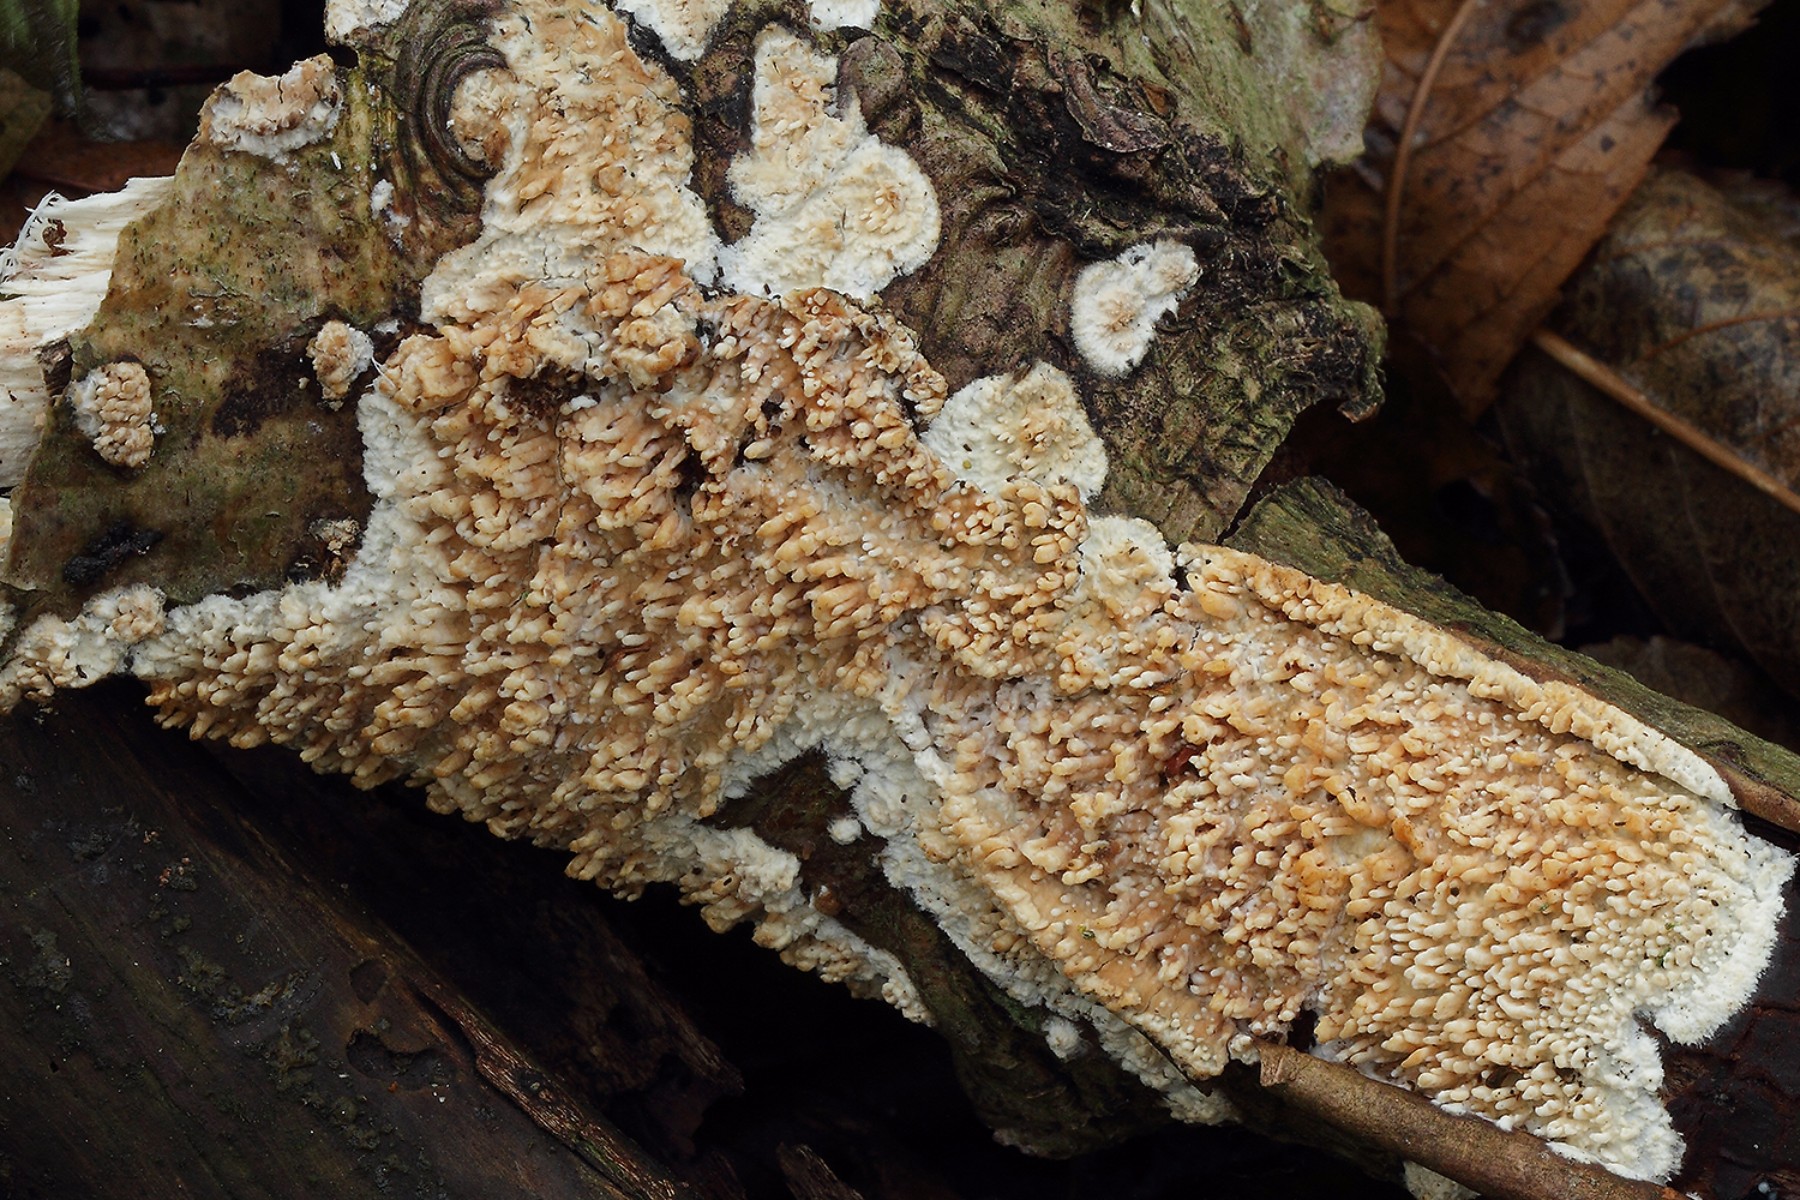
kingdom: Fungi
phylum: Basidiomycota
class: Agaricomycetes
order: Hymenochaetales
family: Schizoporaceae
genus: Xylodon
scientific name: Xylodon radula
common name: grovtandet kalkskind
